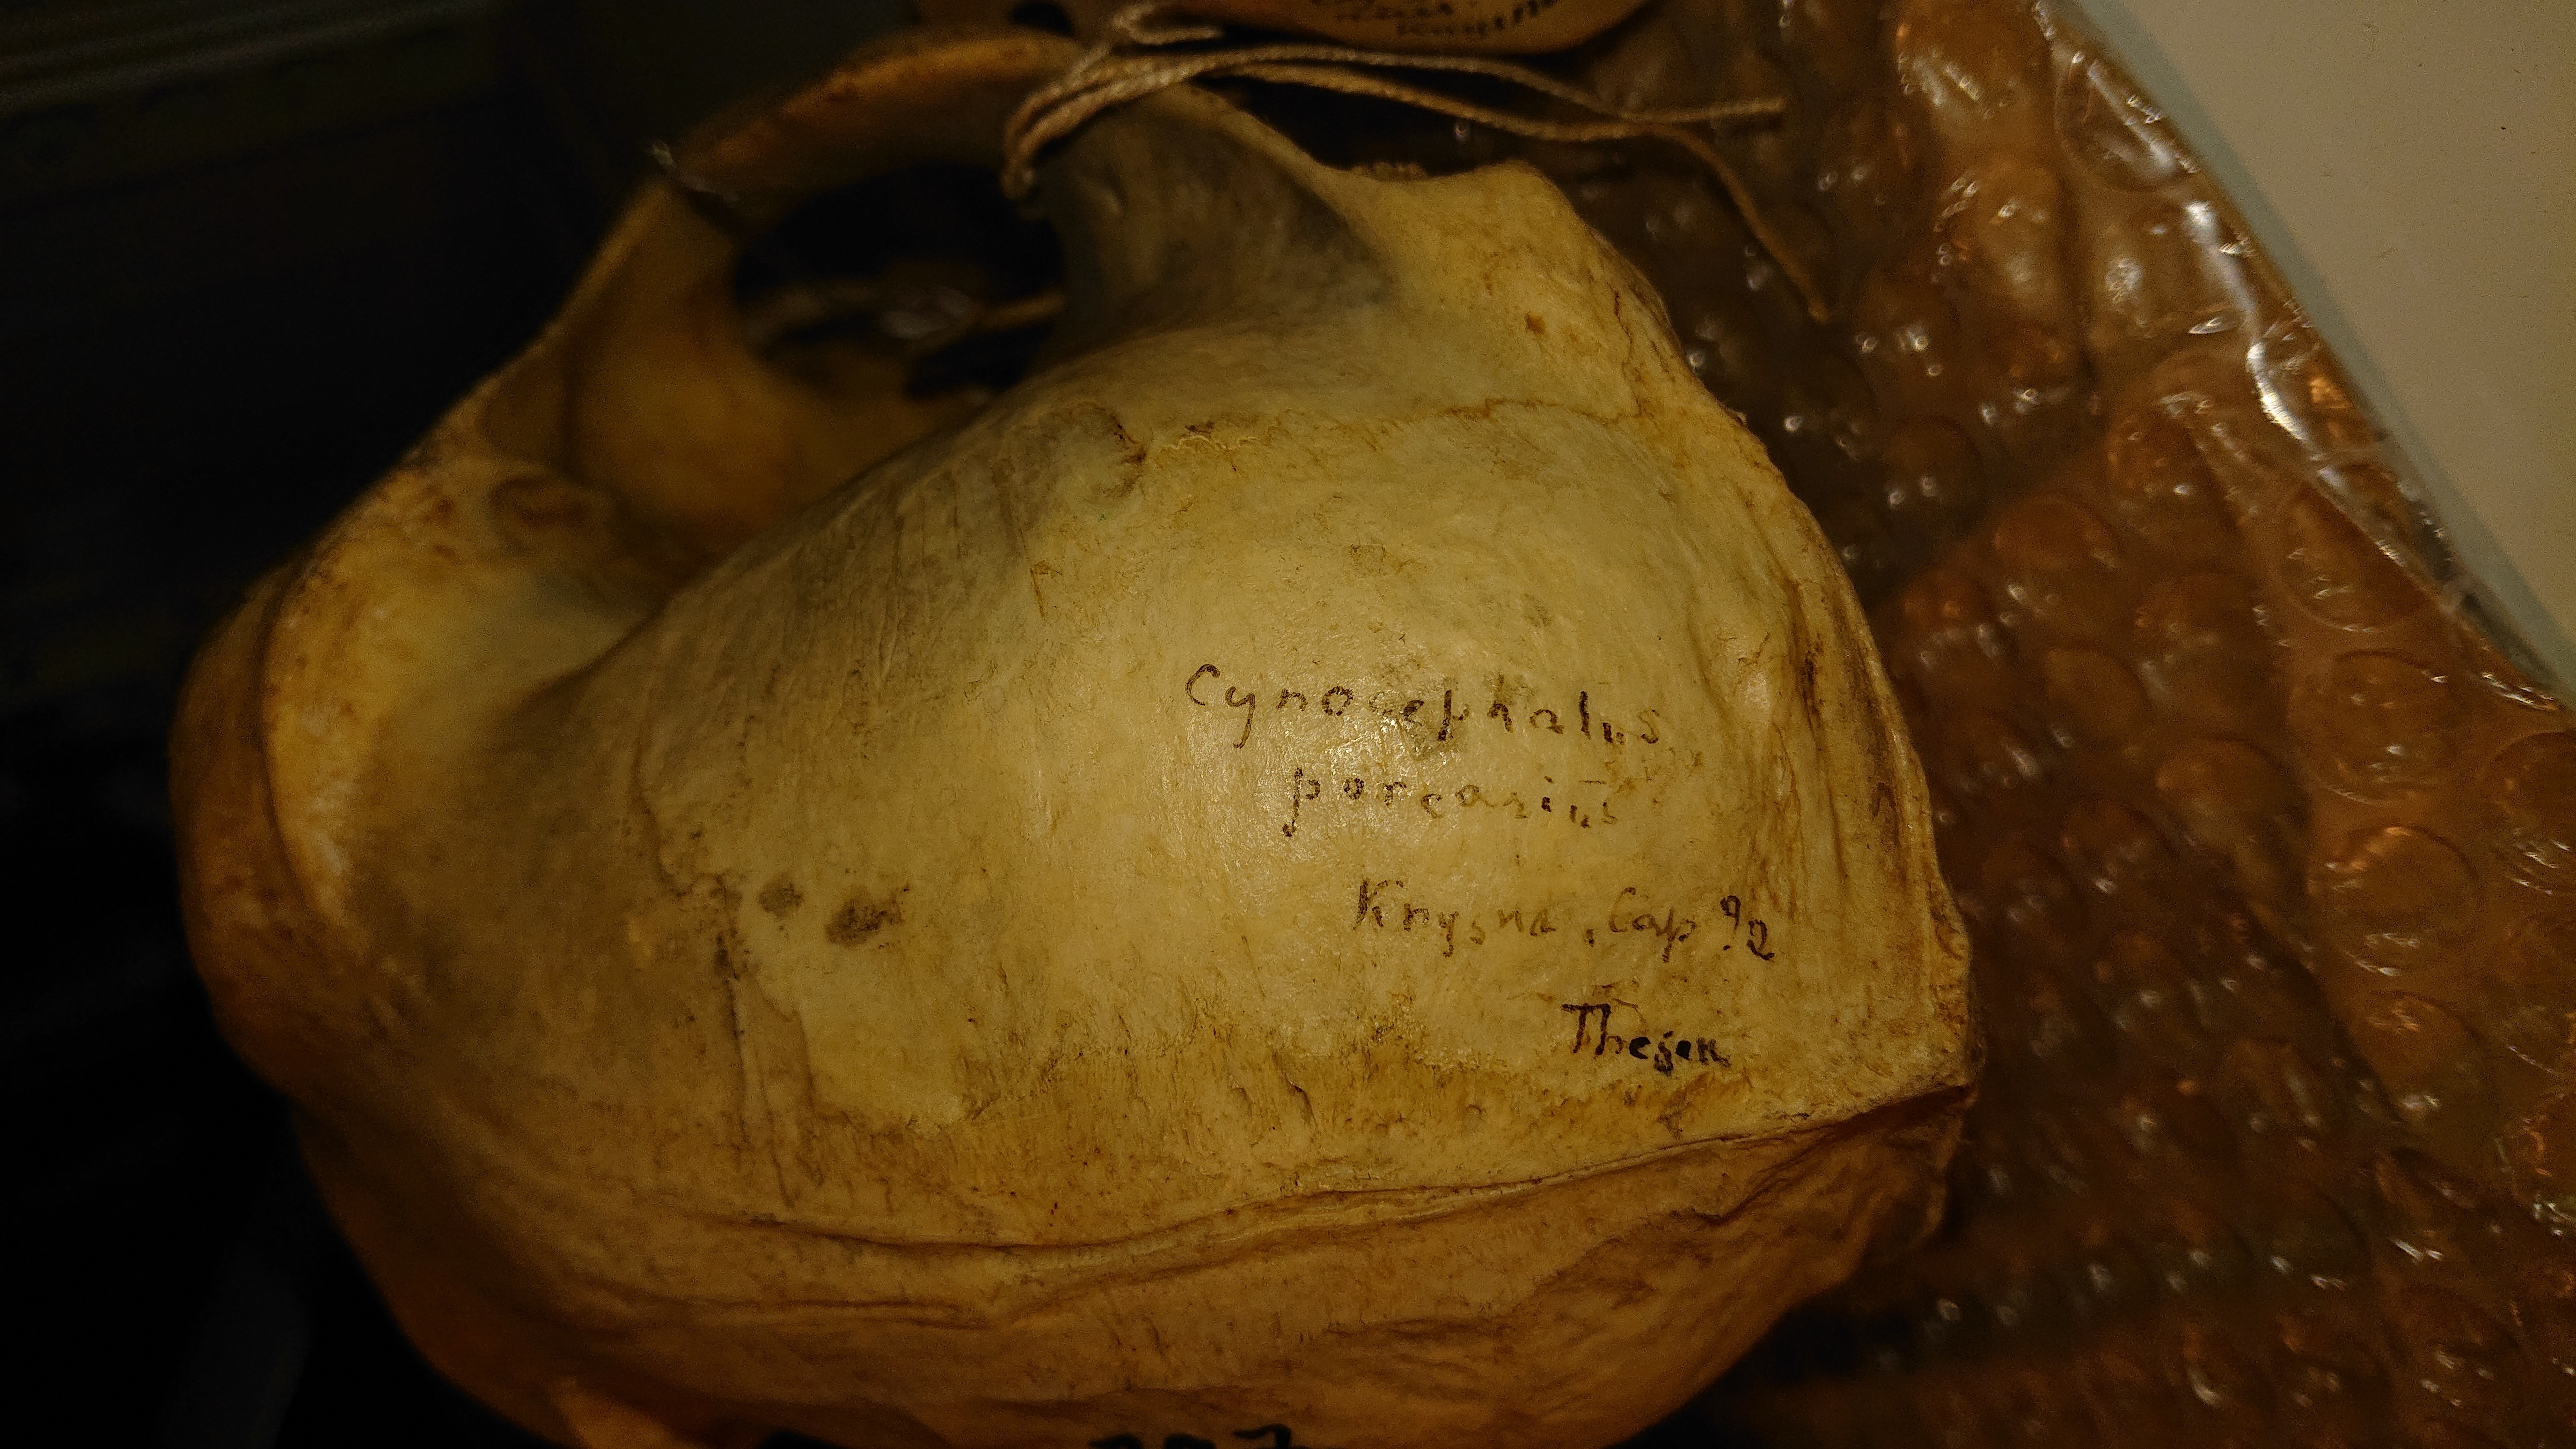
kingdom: Animalia
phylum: Chordata
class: Mammalia
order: Primates
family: Cercopithecidae
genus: Papio
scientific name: Papio ursinus
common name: Chacma baboon
